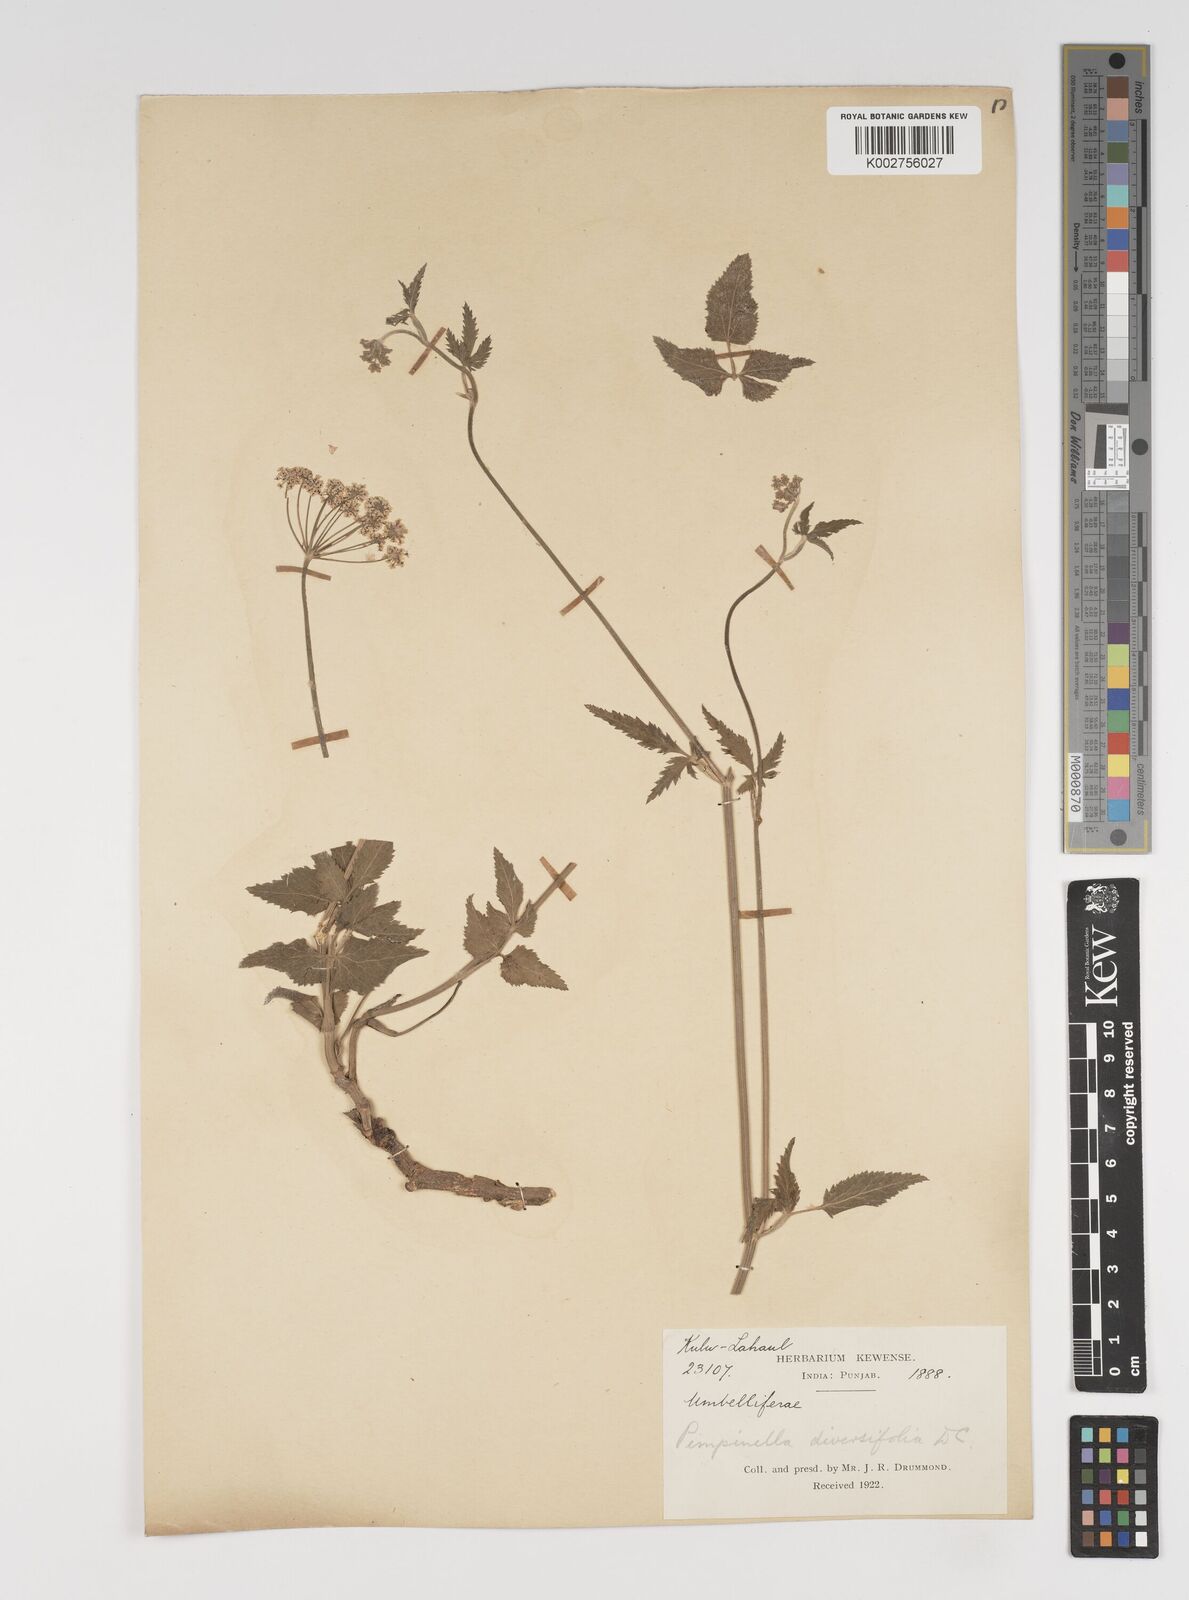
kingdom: Plantae
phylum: Tracheophyta
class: Magnoliopsida
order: Apiales
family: Apiaceae
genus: Pimpinella
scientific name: Pimpinella diversifolia
